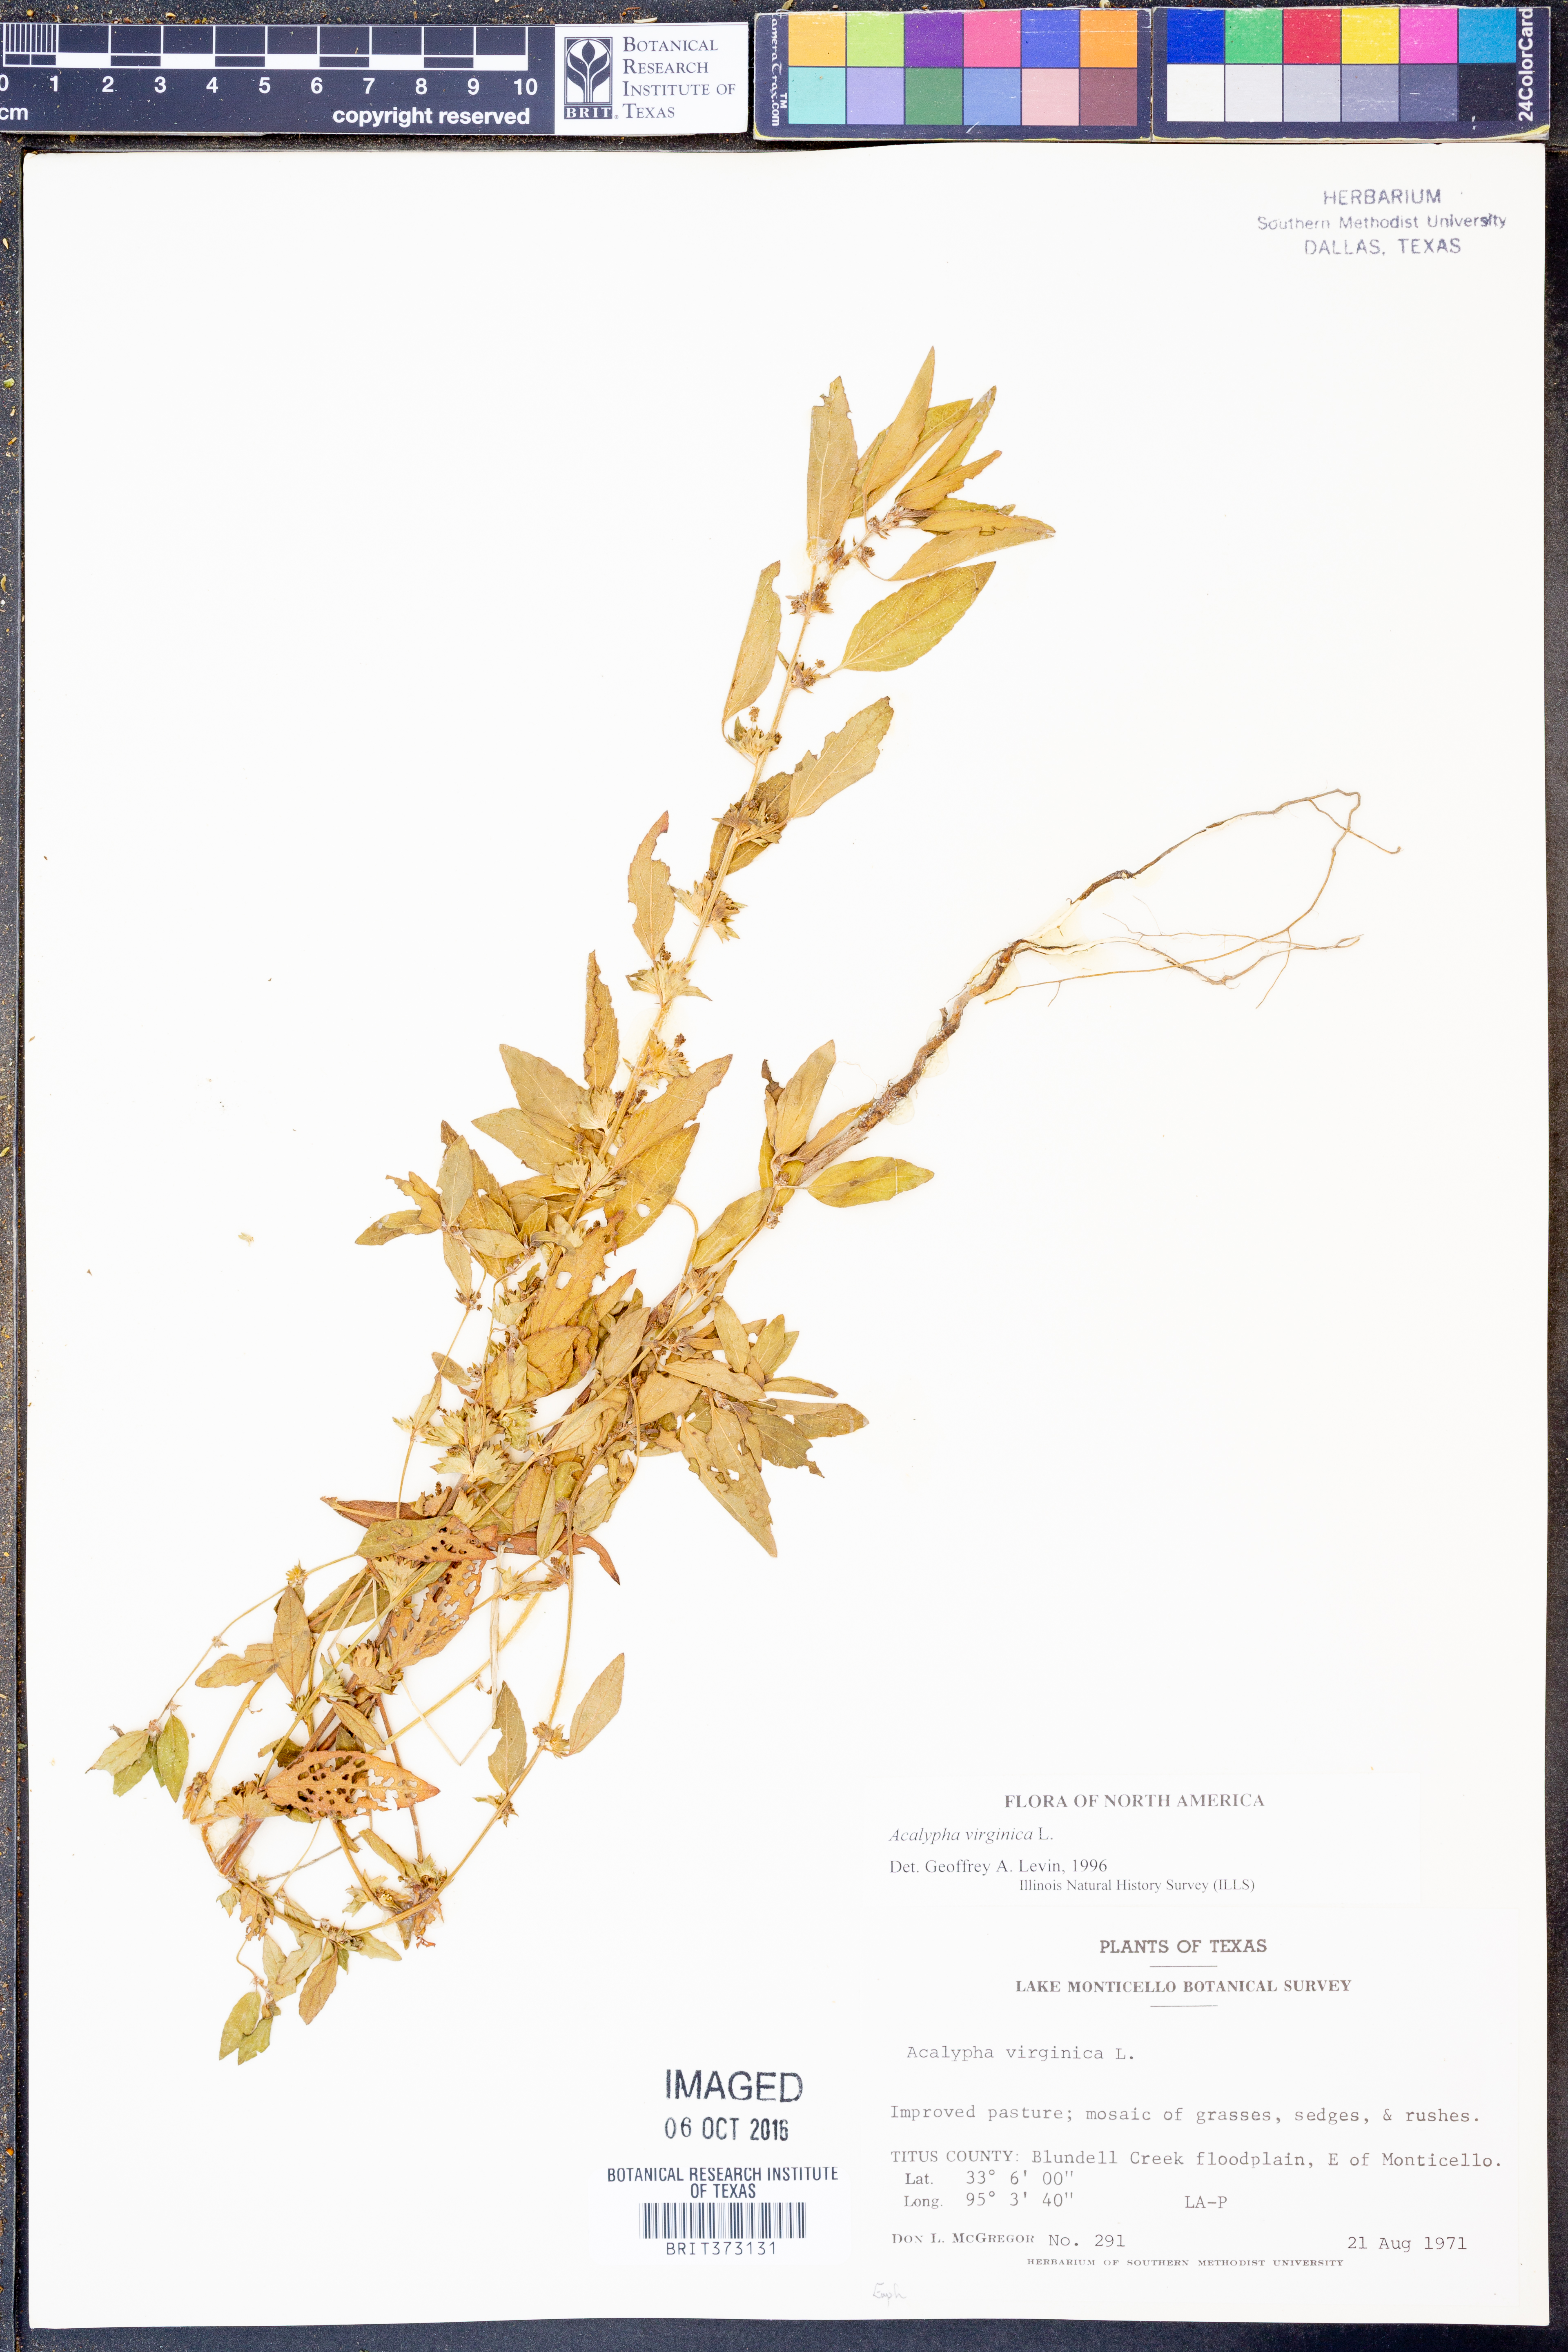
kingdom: Plantae
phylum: Tracheophyta
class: Magnoliopsida
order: Malpighiales
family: Euphorbiaceae
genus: Acalypha
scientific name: Acalypha virginica
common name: Virginia copperleaf
